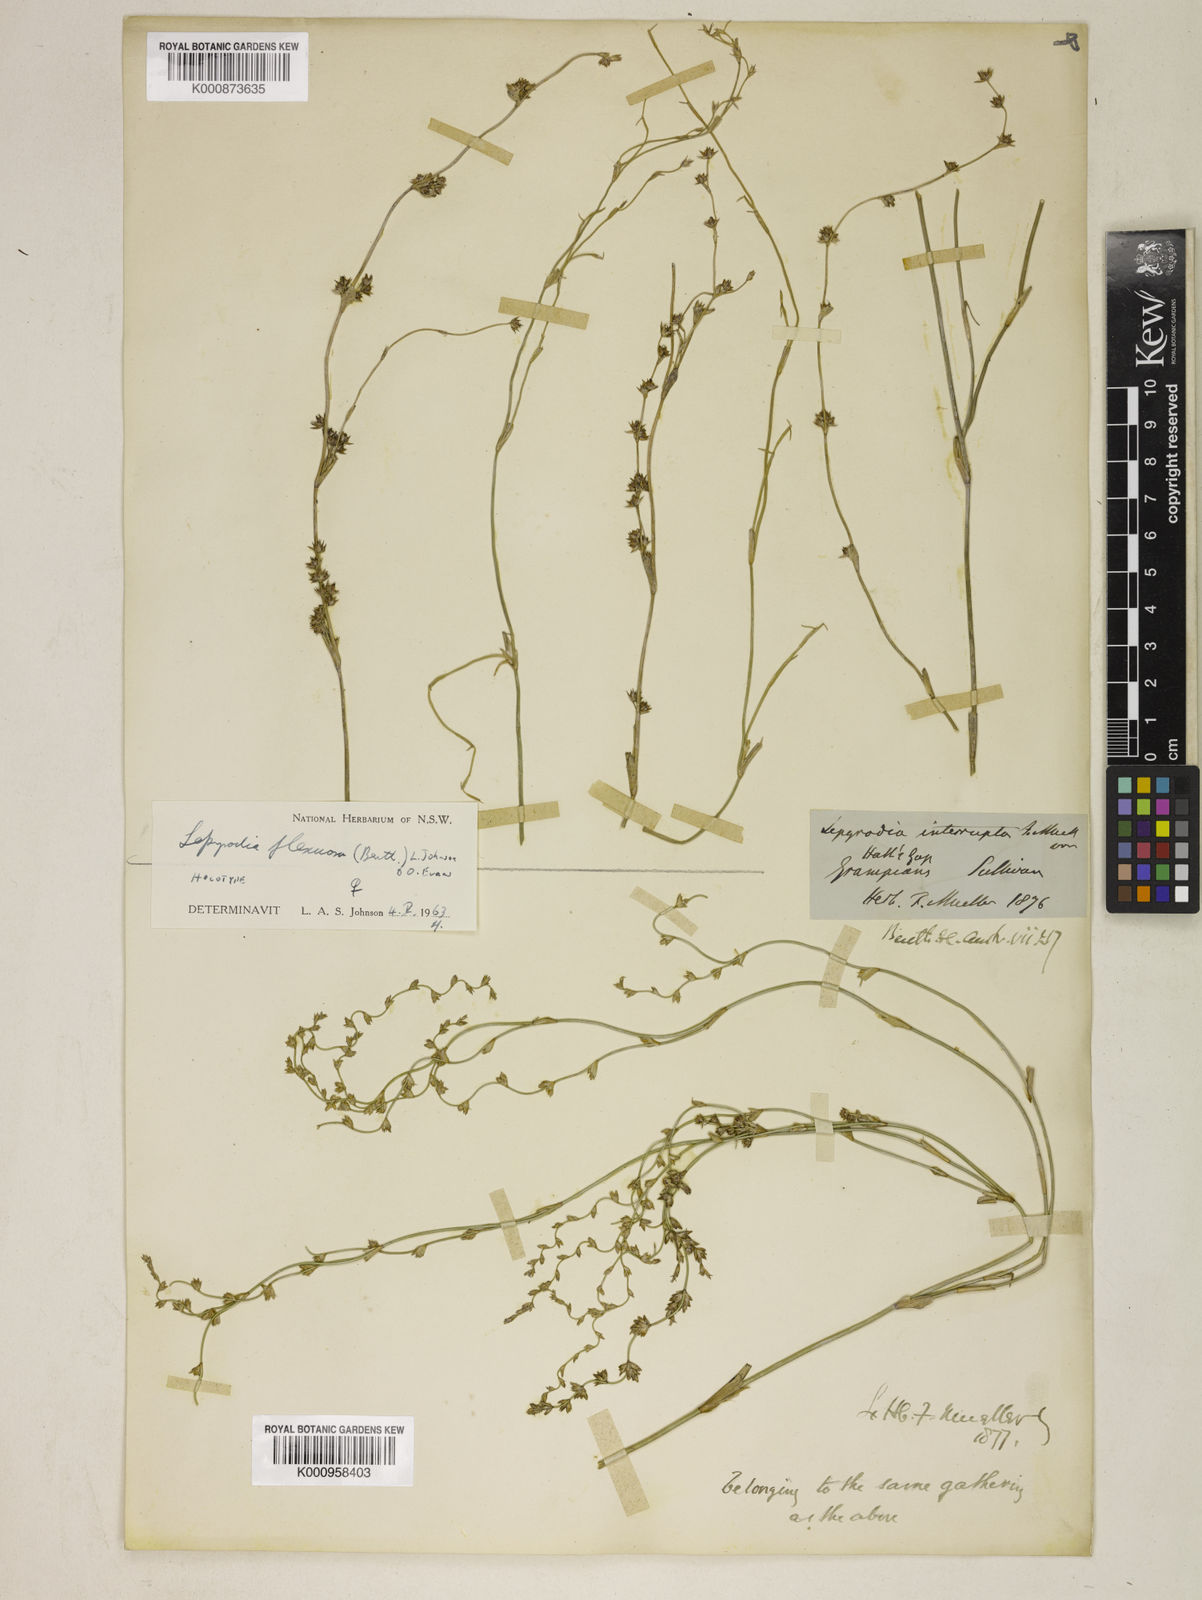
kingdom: Plantae
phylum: Tracheophyta
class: Liliopsida
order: Poales
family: Restionaceae
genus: Lepyrodia
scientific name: Lepyrodia flexuosa
